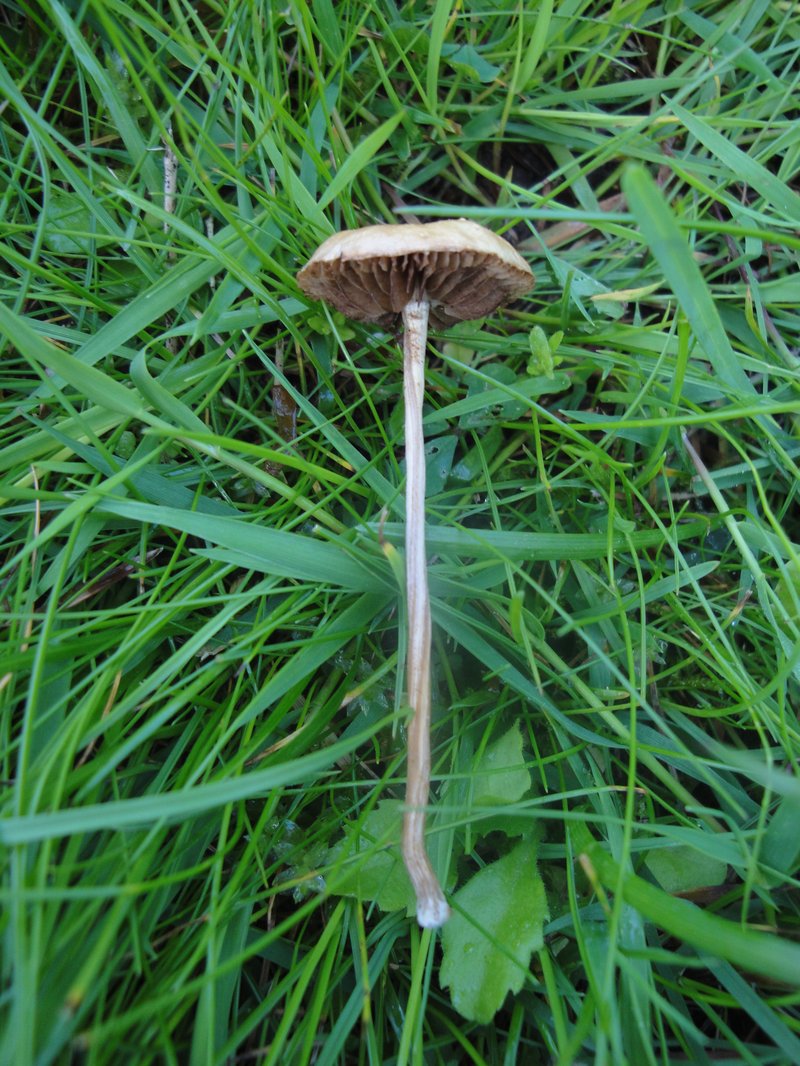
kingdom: Fungi
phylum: Basidiomycota
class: Agaricomycetes
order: Agaricales
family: Strophariaceae
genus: Agrocybe
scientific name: Agrocybe pediades
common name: almindelig agerhat
